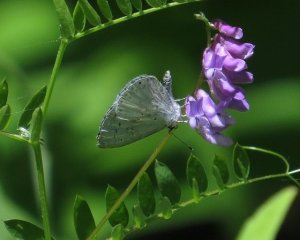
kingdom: Animalia
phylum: Arthropoda
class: Insecta
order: Lepidoptera
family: Lycaenidae
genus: Cyaniris
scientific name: Cyaniris neglecta
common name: Summer Azure
